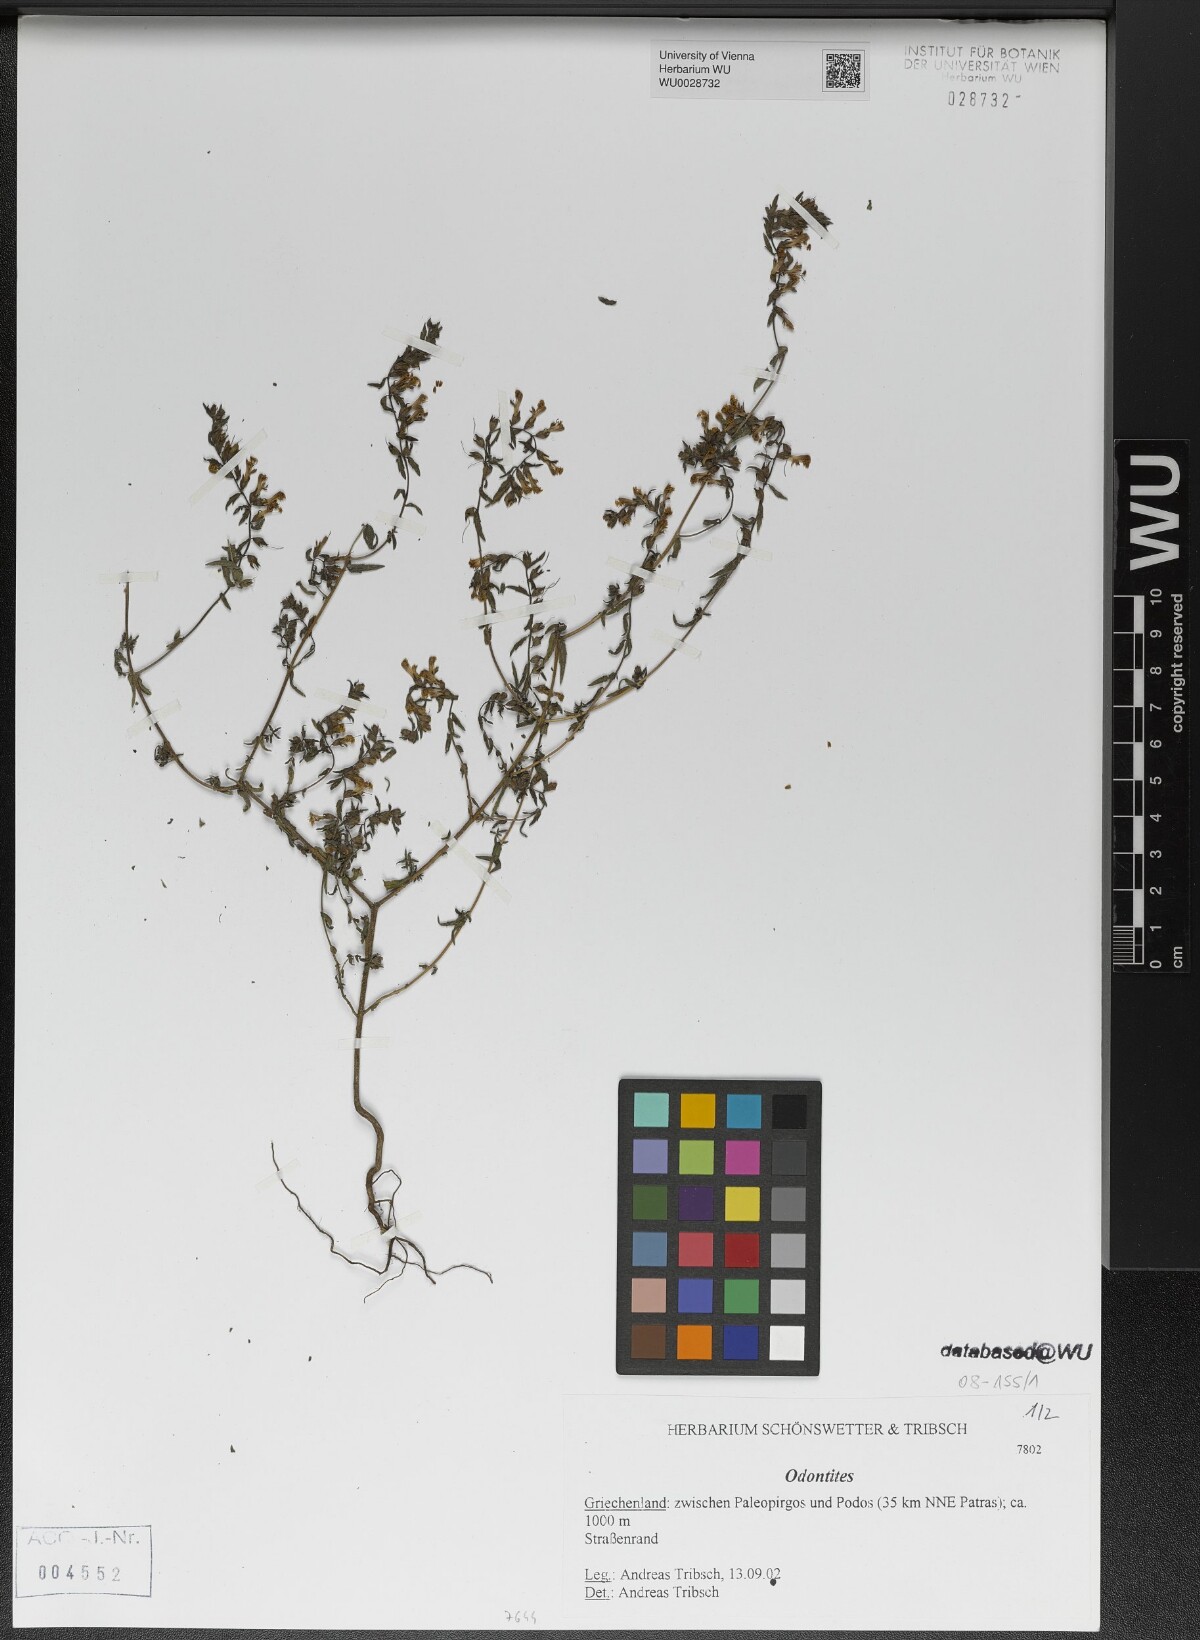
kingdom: Plantae
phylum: Tracheophyta
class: Magnoliopsida
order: Lamiales
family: Orobanchaceae
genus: Odontites
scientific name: Odontites
